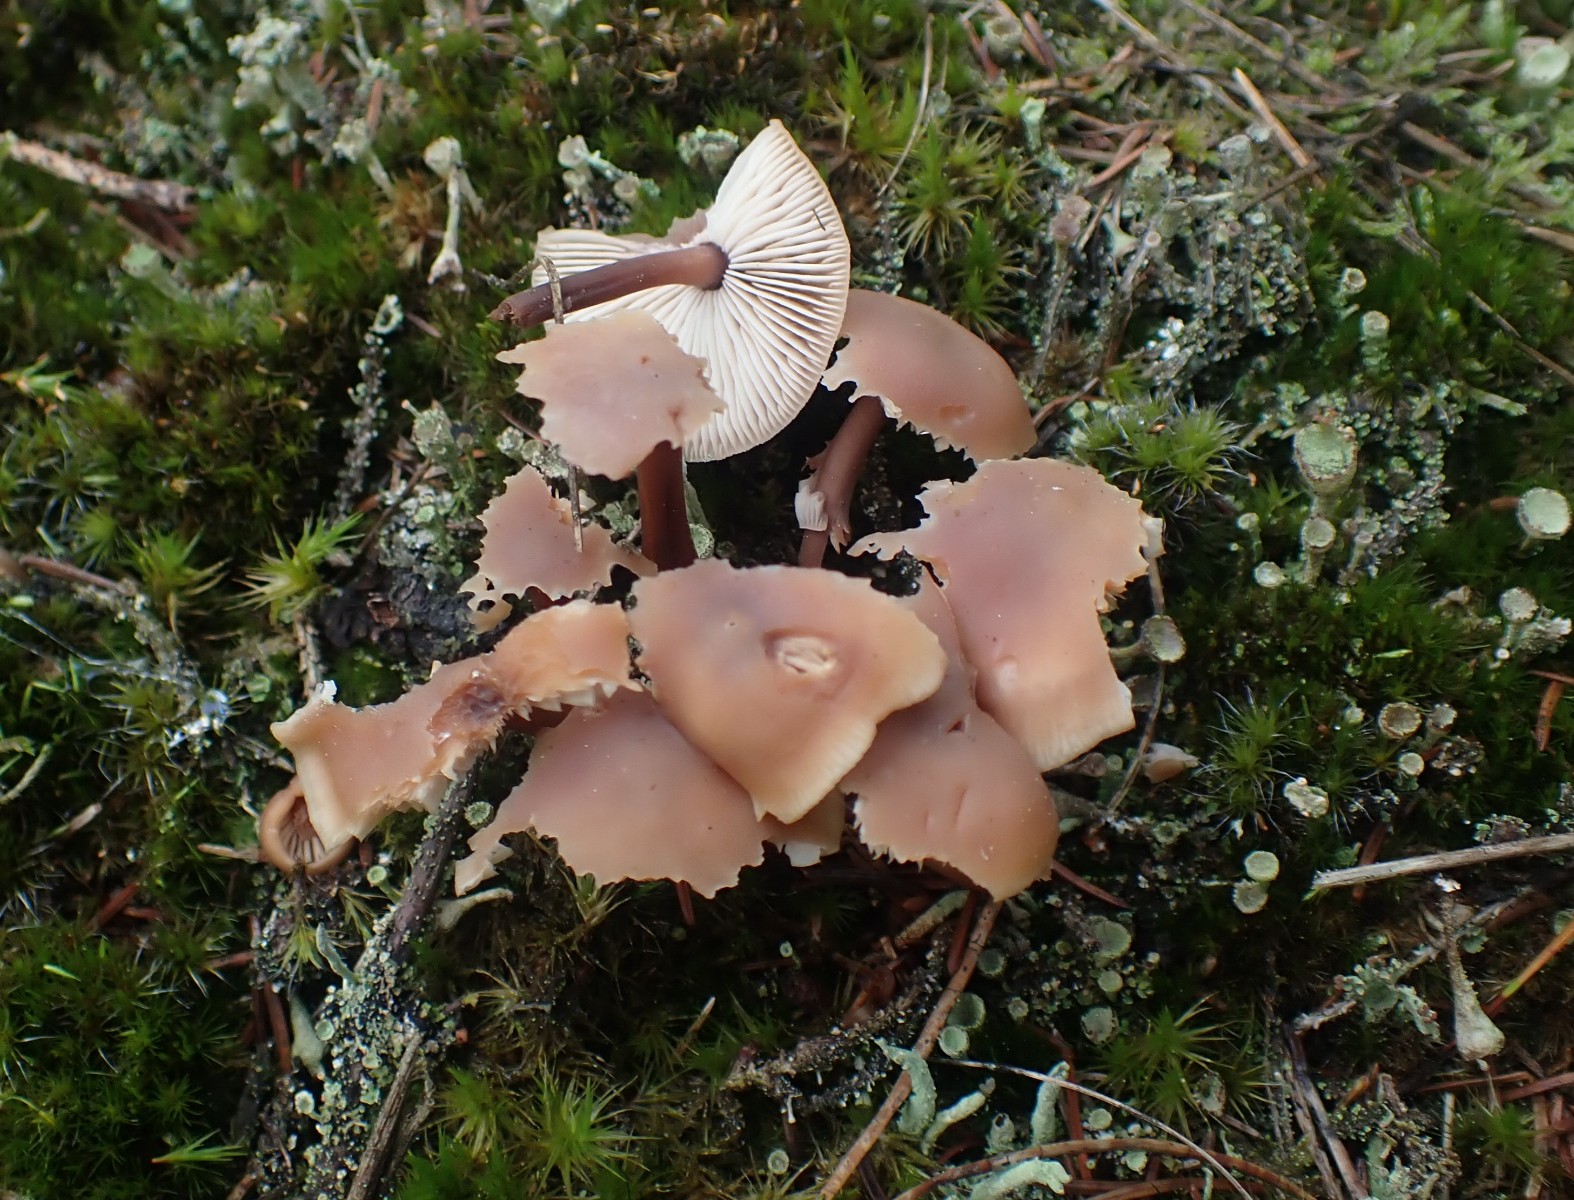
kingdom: Fungi
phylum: Basidiomycota
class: Agaricomycetes
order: Agaricales
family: Omphalotaceae
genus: Connopus
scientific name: Connopus acervatus
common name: tue-fladhat
